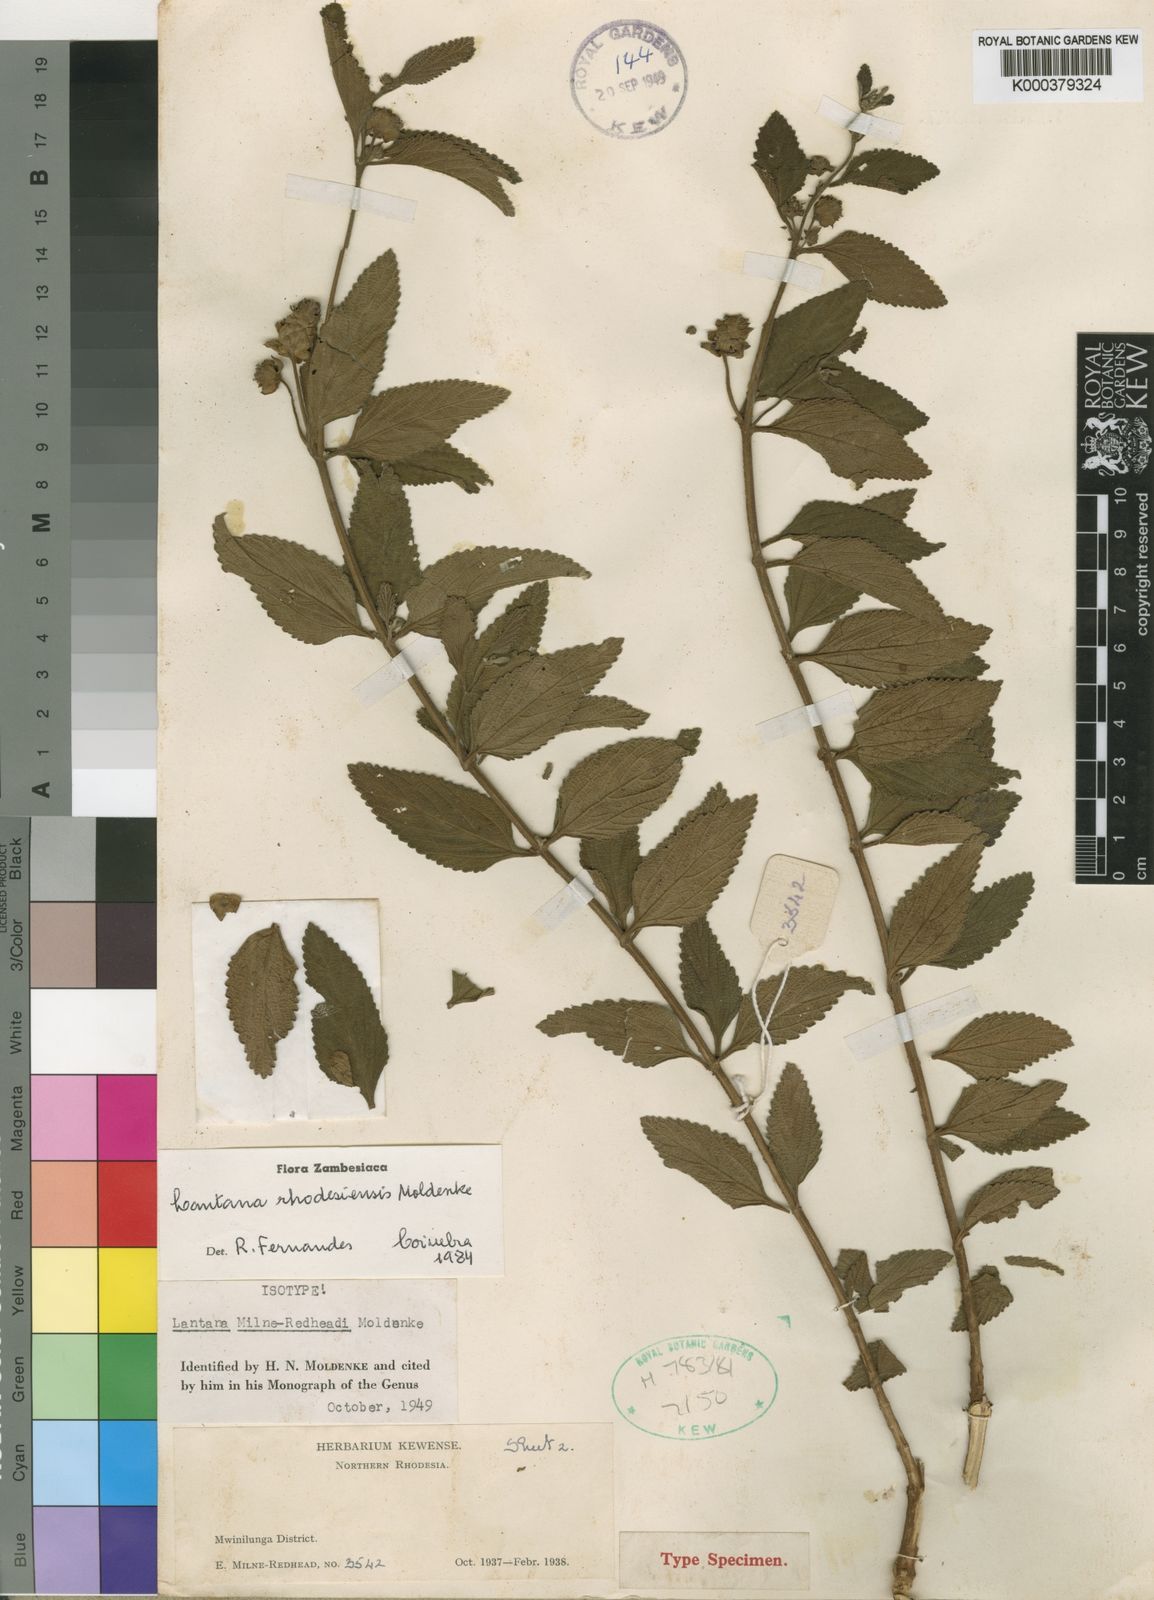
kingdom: Plantae
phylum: Tracheophyta
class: Magnoliopsida
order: Lamiales
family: Verbenaceae
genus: Lantana
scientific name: Lantana ukambensis
